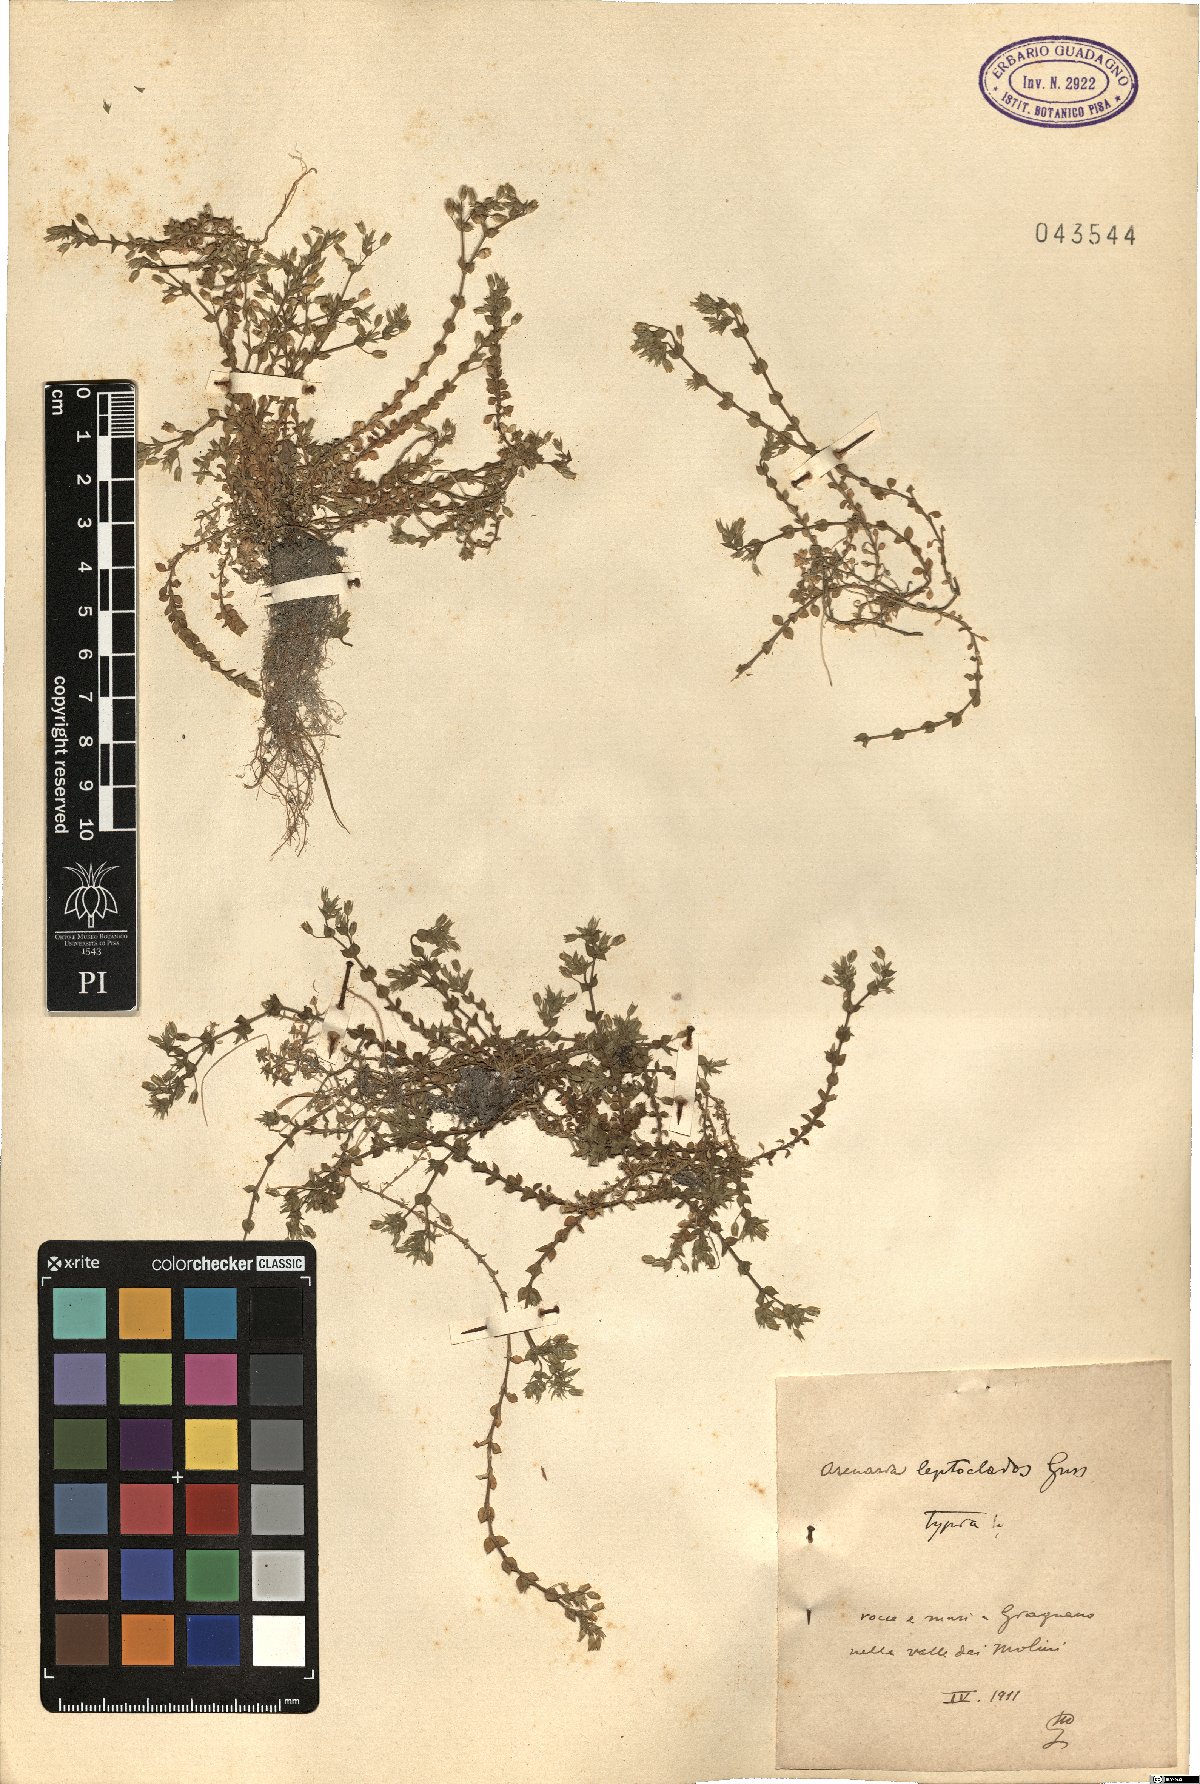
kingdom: Plantae
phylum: Tracheophyta
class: Magnoliopsida
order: Caryophyllales
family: Caryophyllaceae
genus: Arenaria
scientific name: Arenaria leptoclados
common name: Thyme-leaved sandwort
